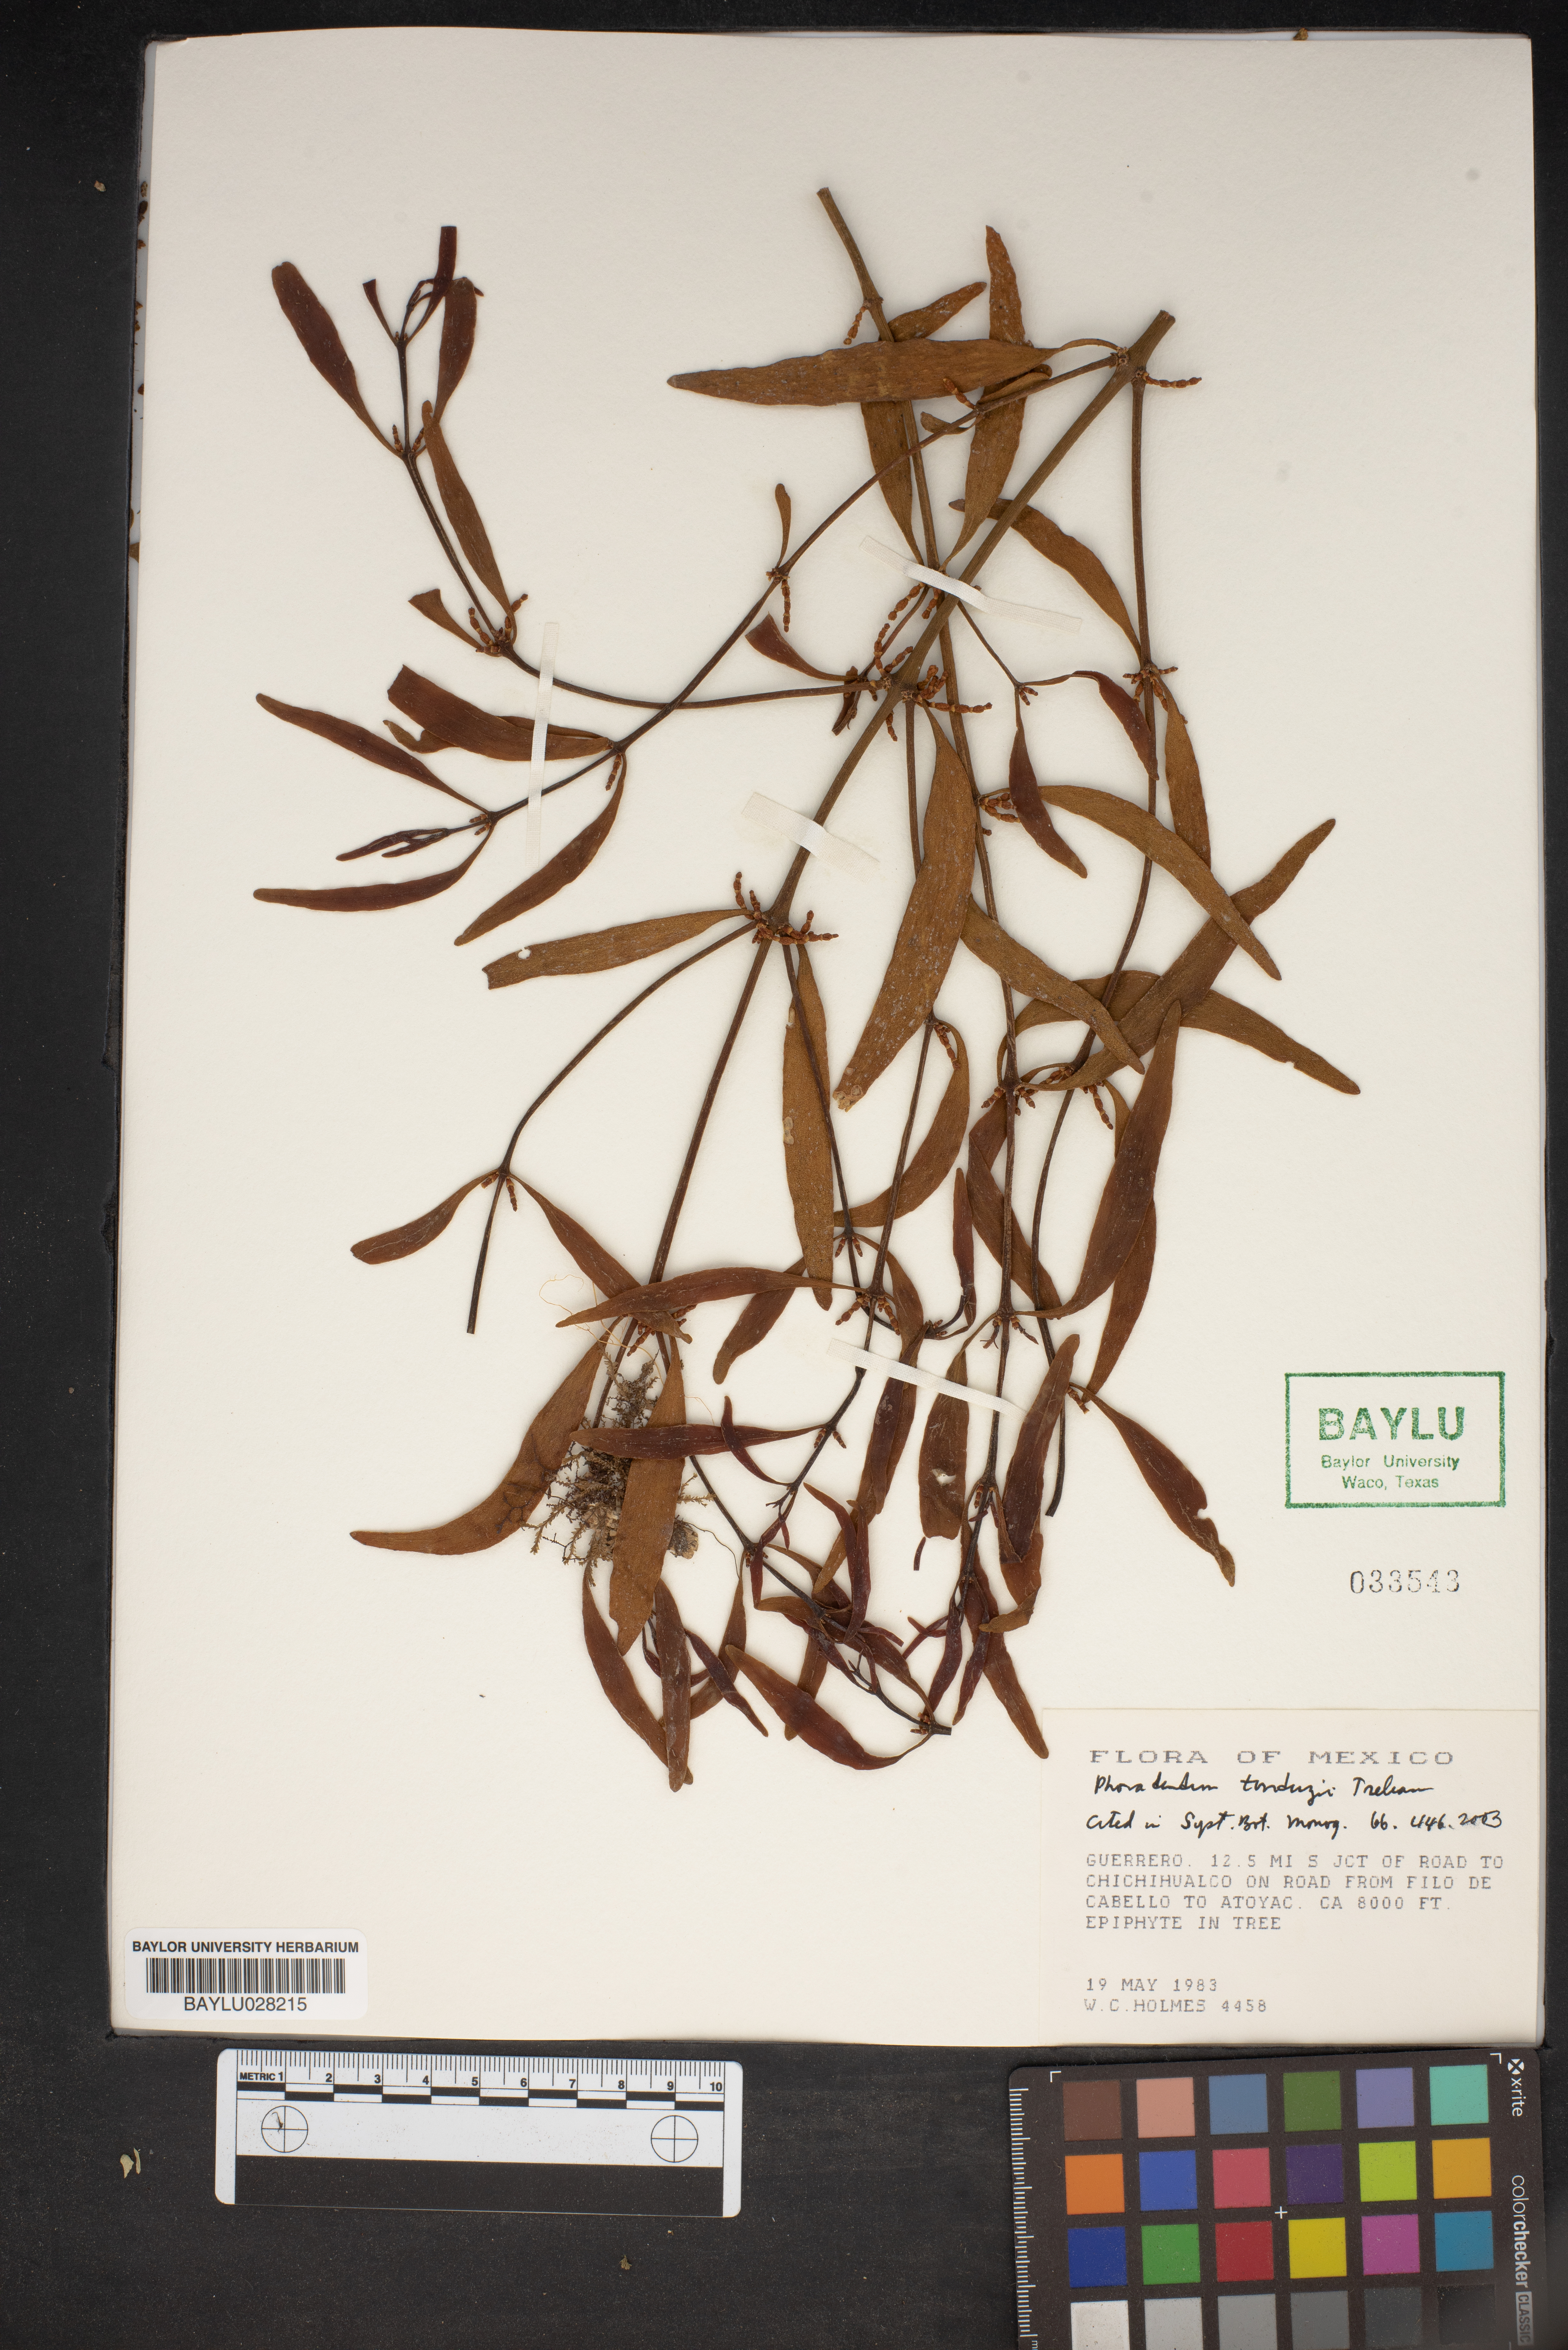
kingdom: Plantae
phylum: Tracheophyta
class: Magnoliopsida
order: Santalales
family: Viscaceae
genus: Phoradendron
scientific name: Phoradendron tonduzii
